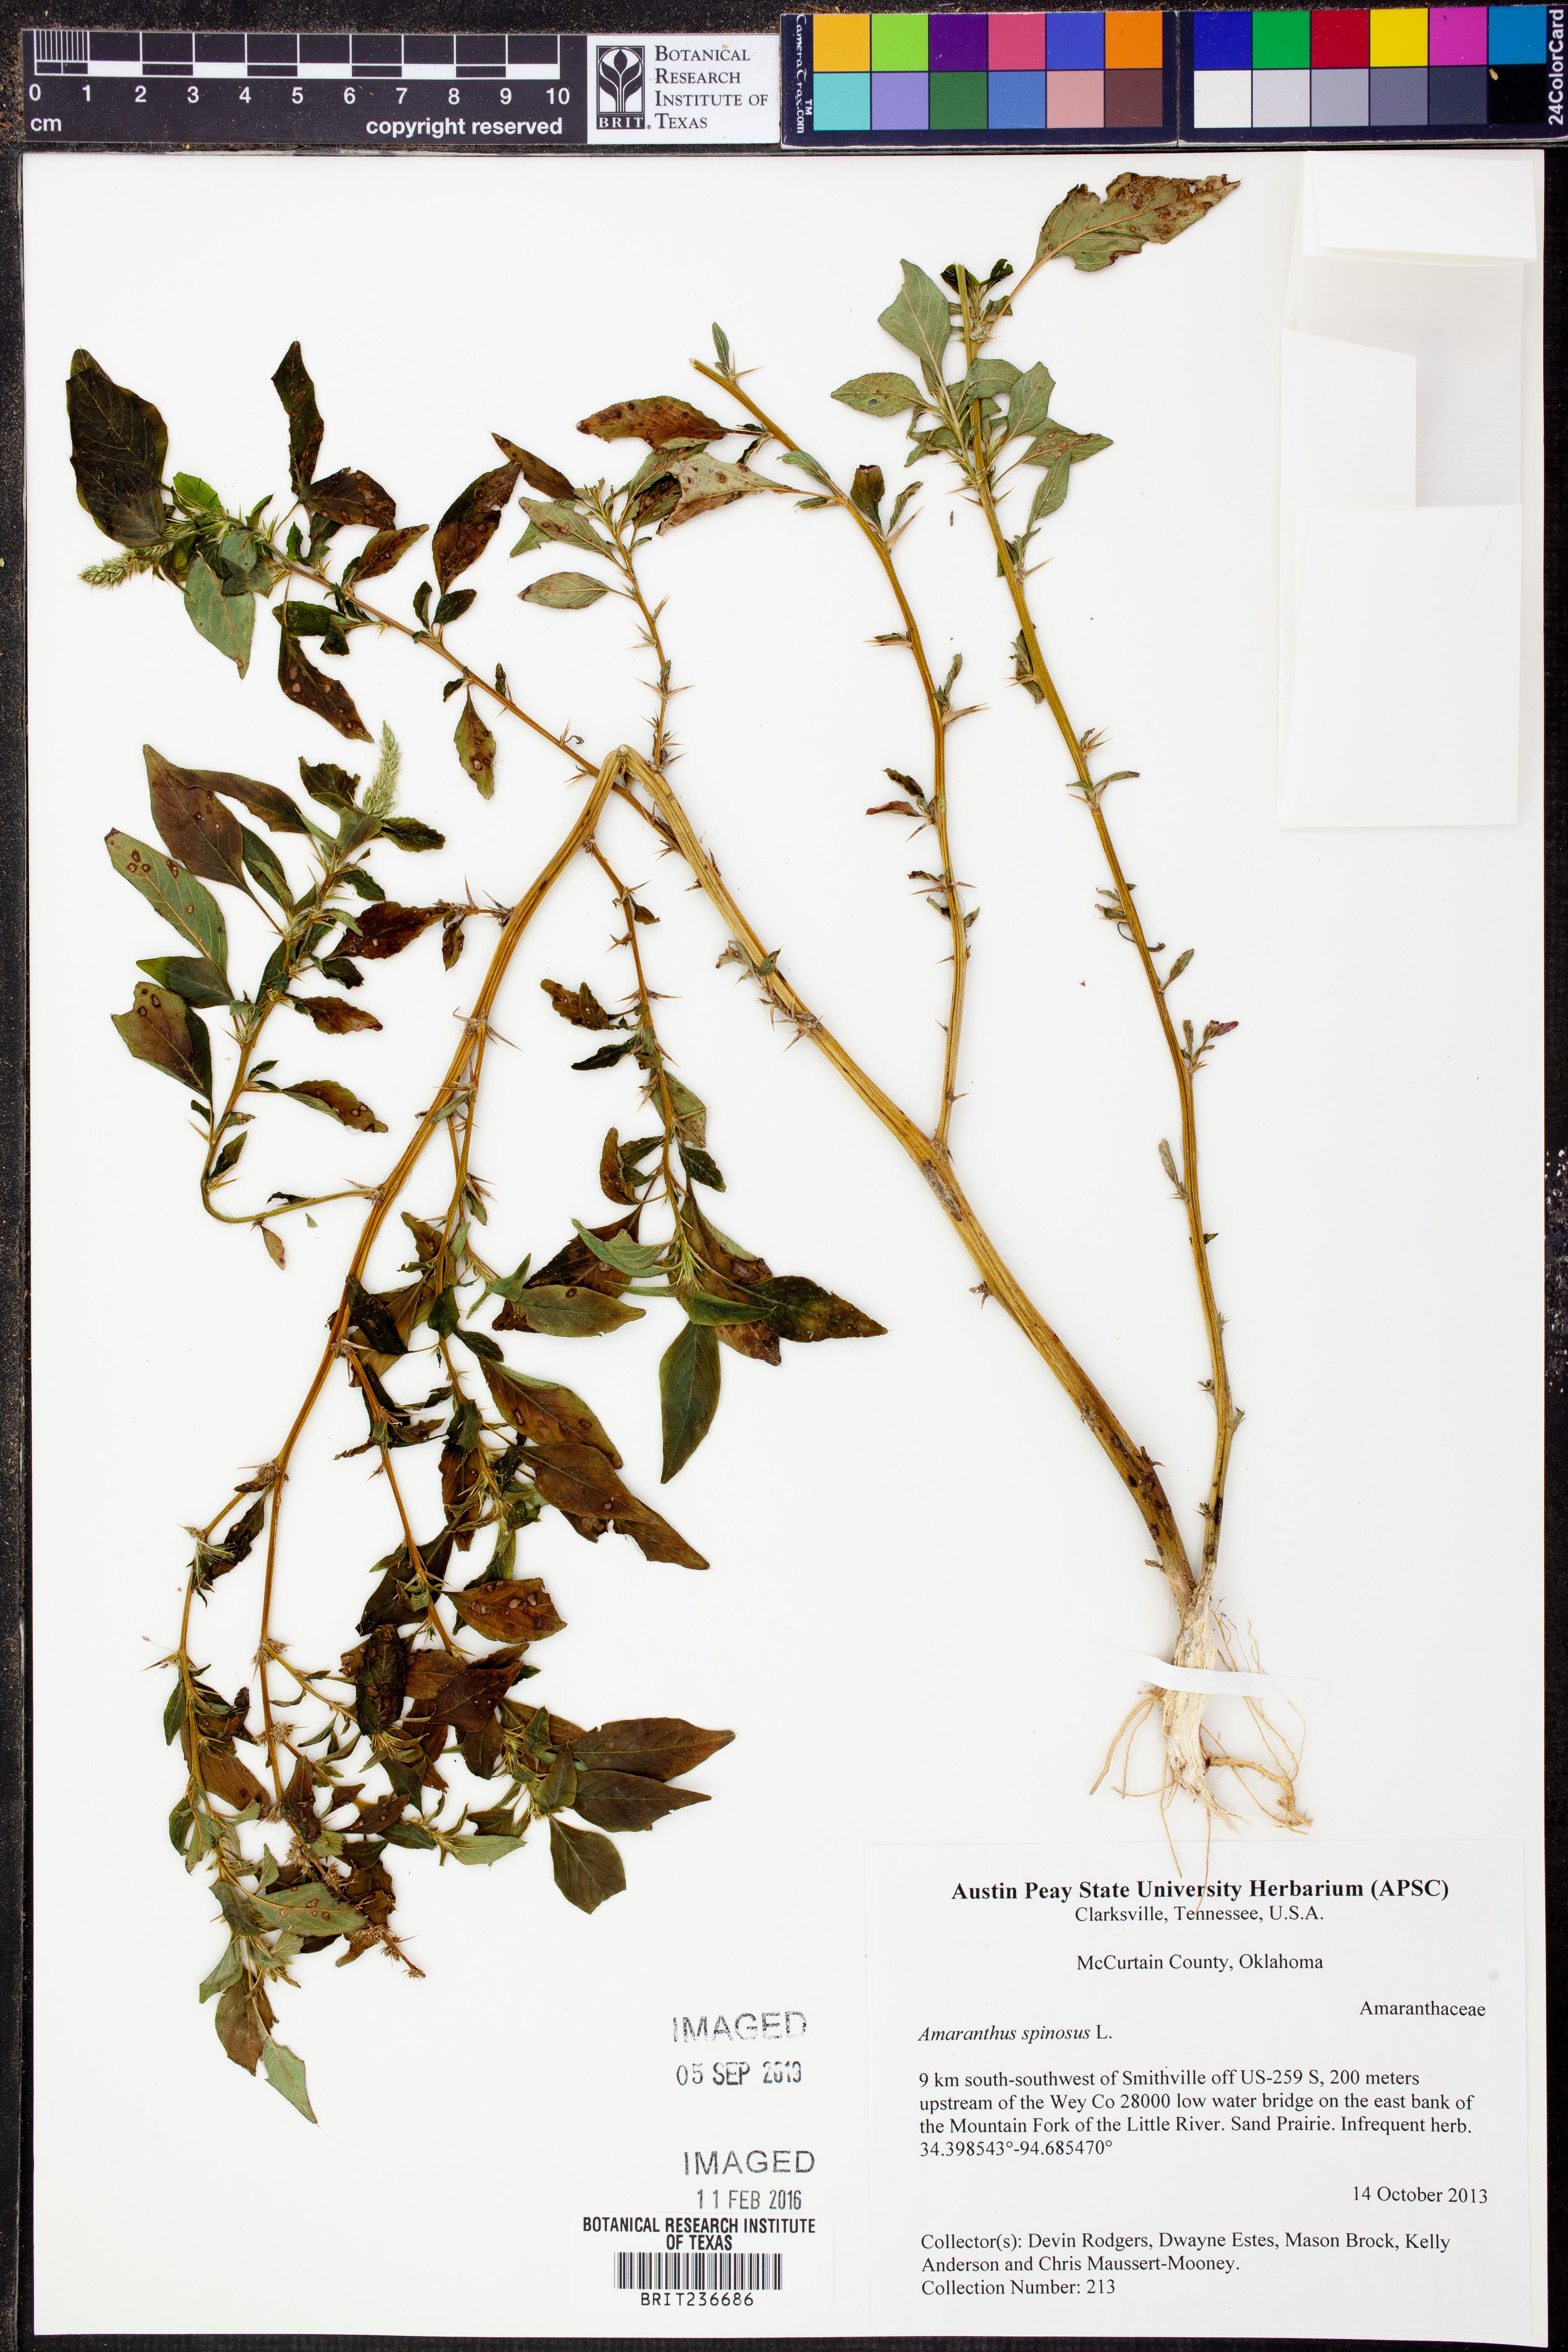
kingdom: Plantae
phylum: Tracheophyta
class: Magnoliopsida
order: Caryophyllales
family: Amaranthaceae
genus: Amaranthus
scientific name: Amaranthus spinosus
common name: Spiny amaranth
